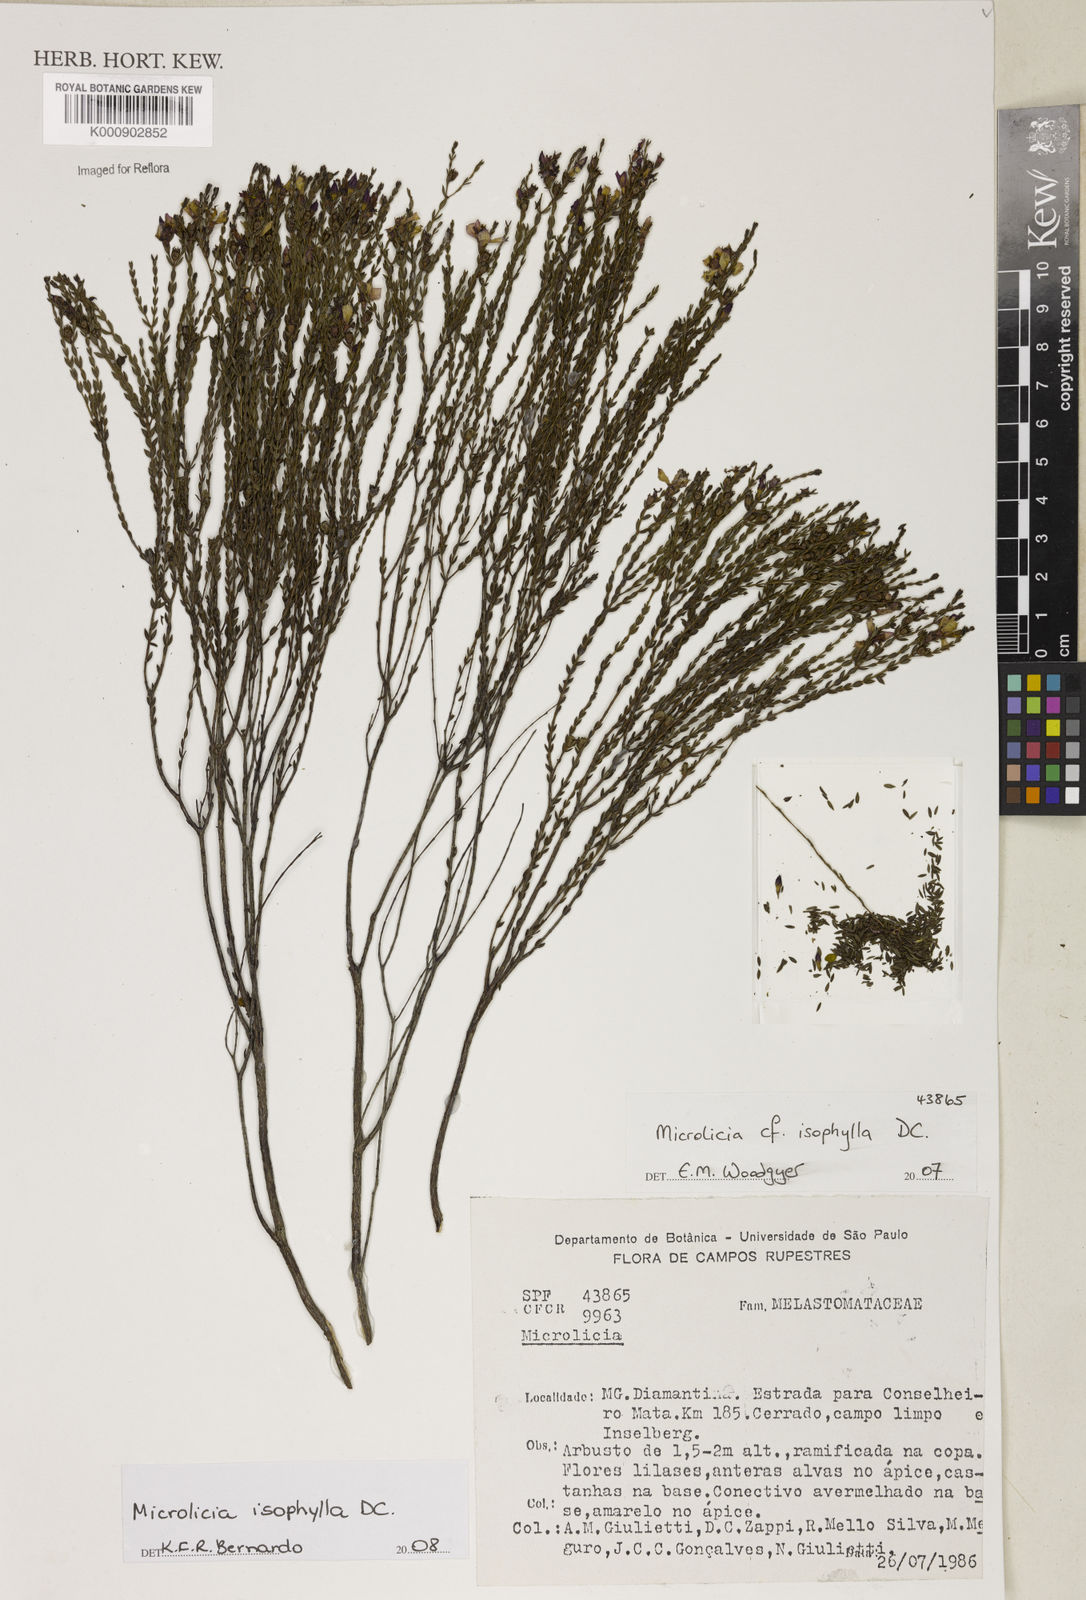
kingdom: Plantae
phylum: Tracheophyta
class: Magnoliopsida
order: Myrtales
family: Melastomataceae
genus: Microlicia
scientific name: Microlicia
